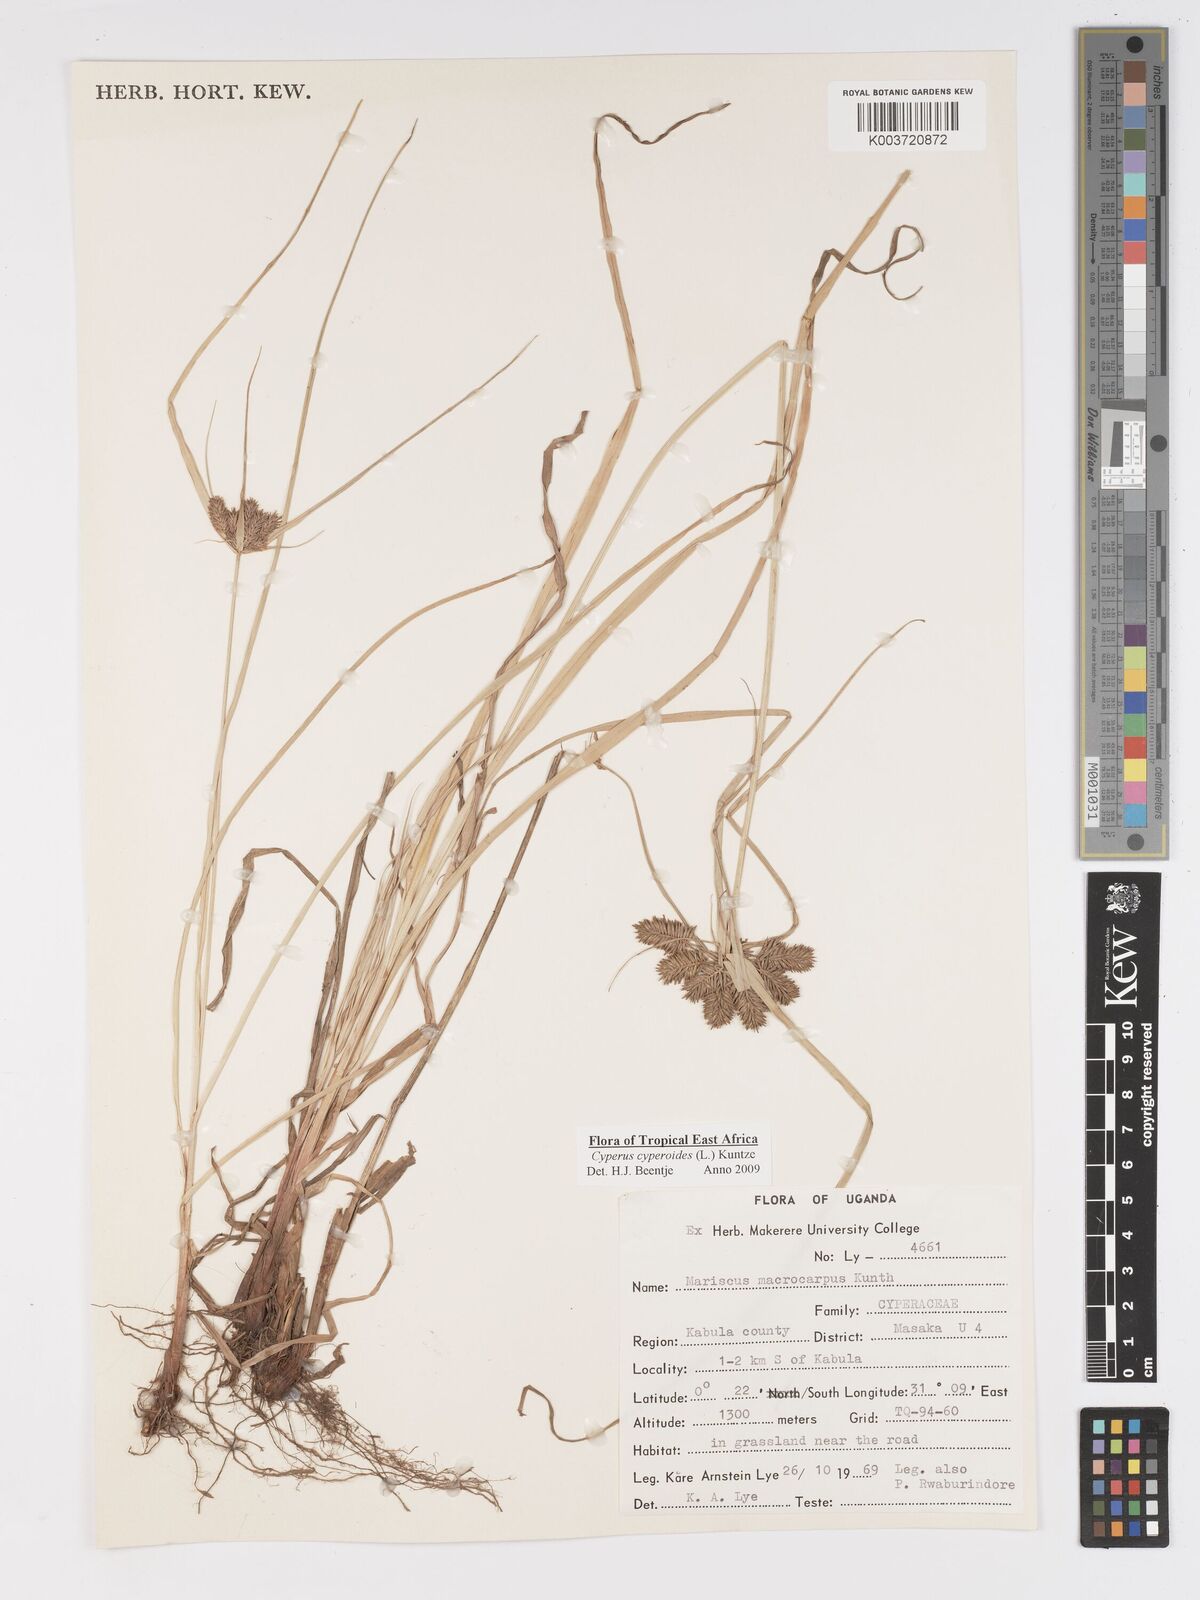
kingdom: Plantae
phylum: Tracheophyta
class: Liliopsida
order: Poales
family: Cyperaceae
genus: Cyperus
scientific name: Cyperus macrocarpus
